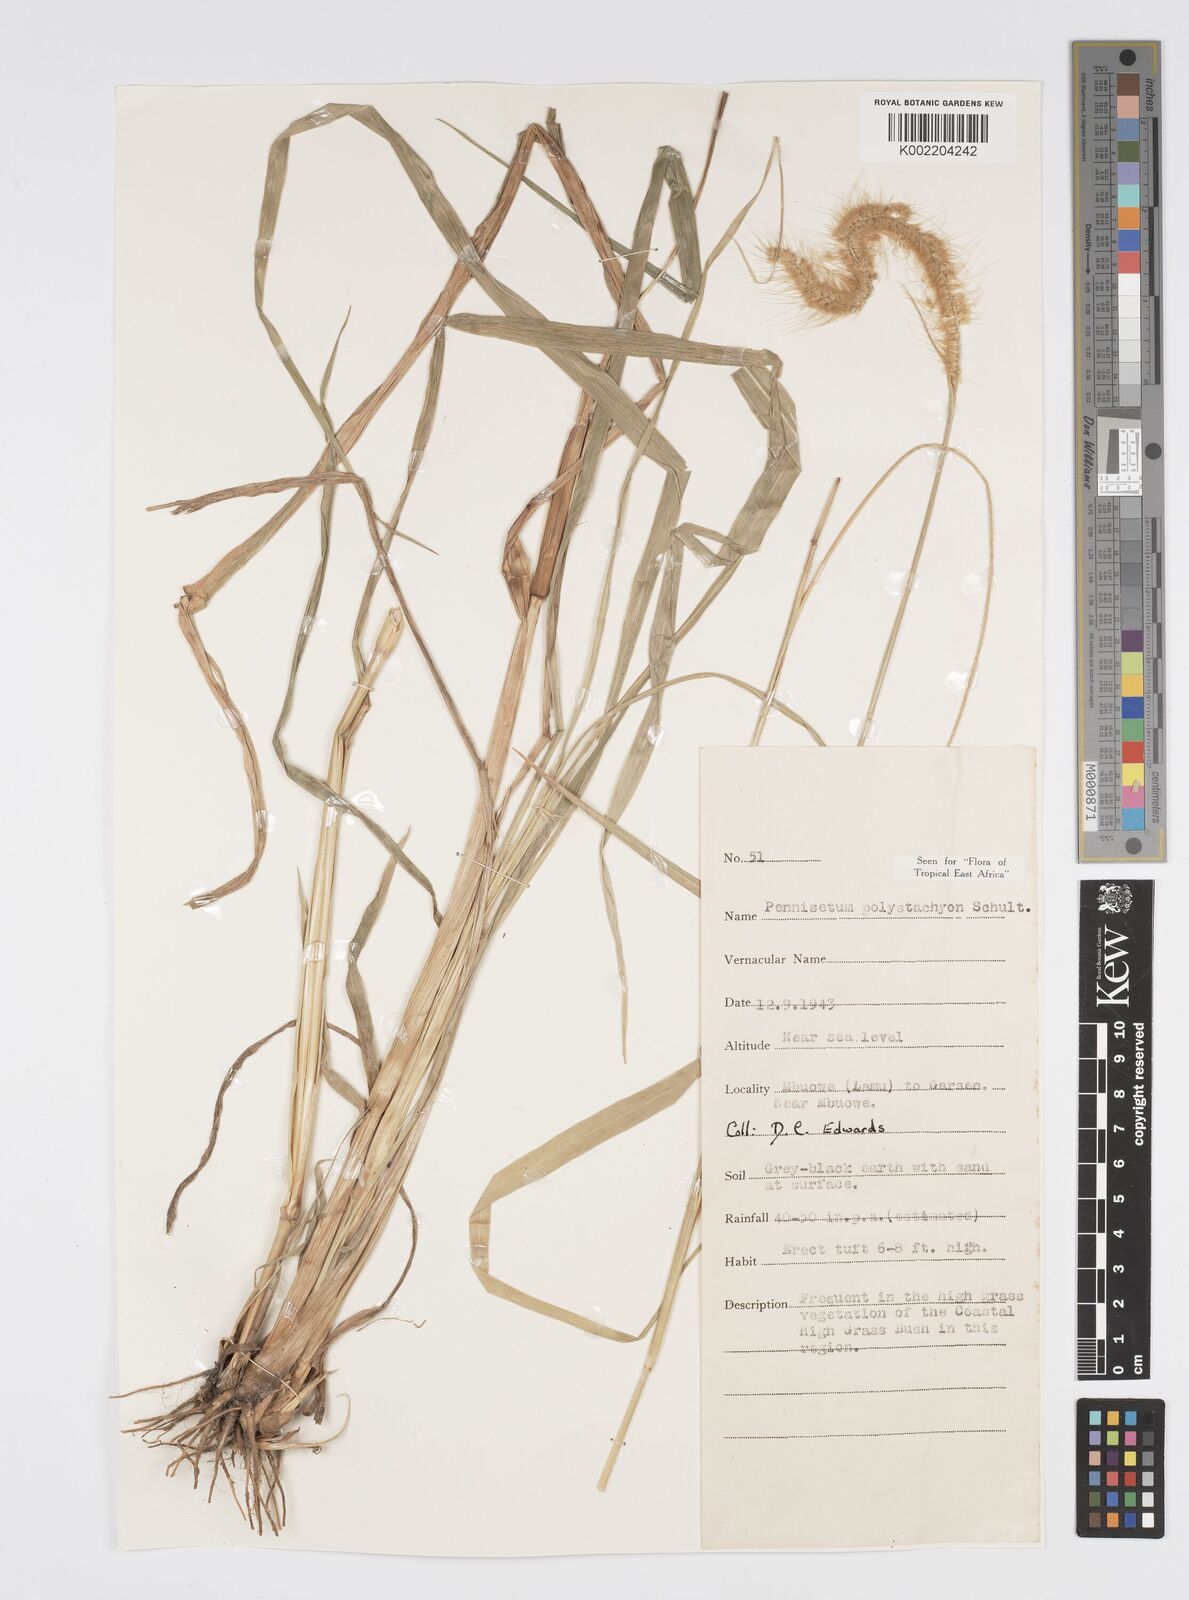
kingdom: Plantae
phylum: Tracheophyta
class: Liliopsida
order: Poales
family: Poaceae
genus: Setaria
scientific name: Setaria parviflora
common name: Knotroot bristle-grass
